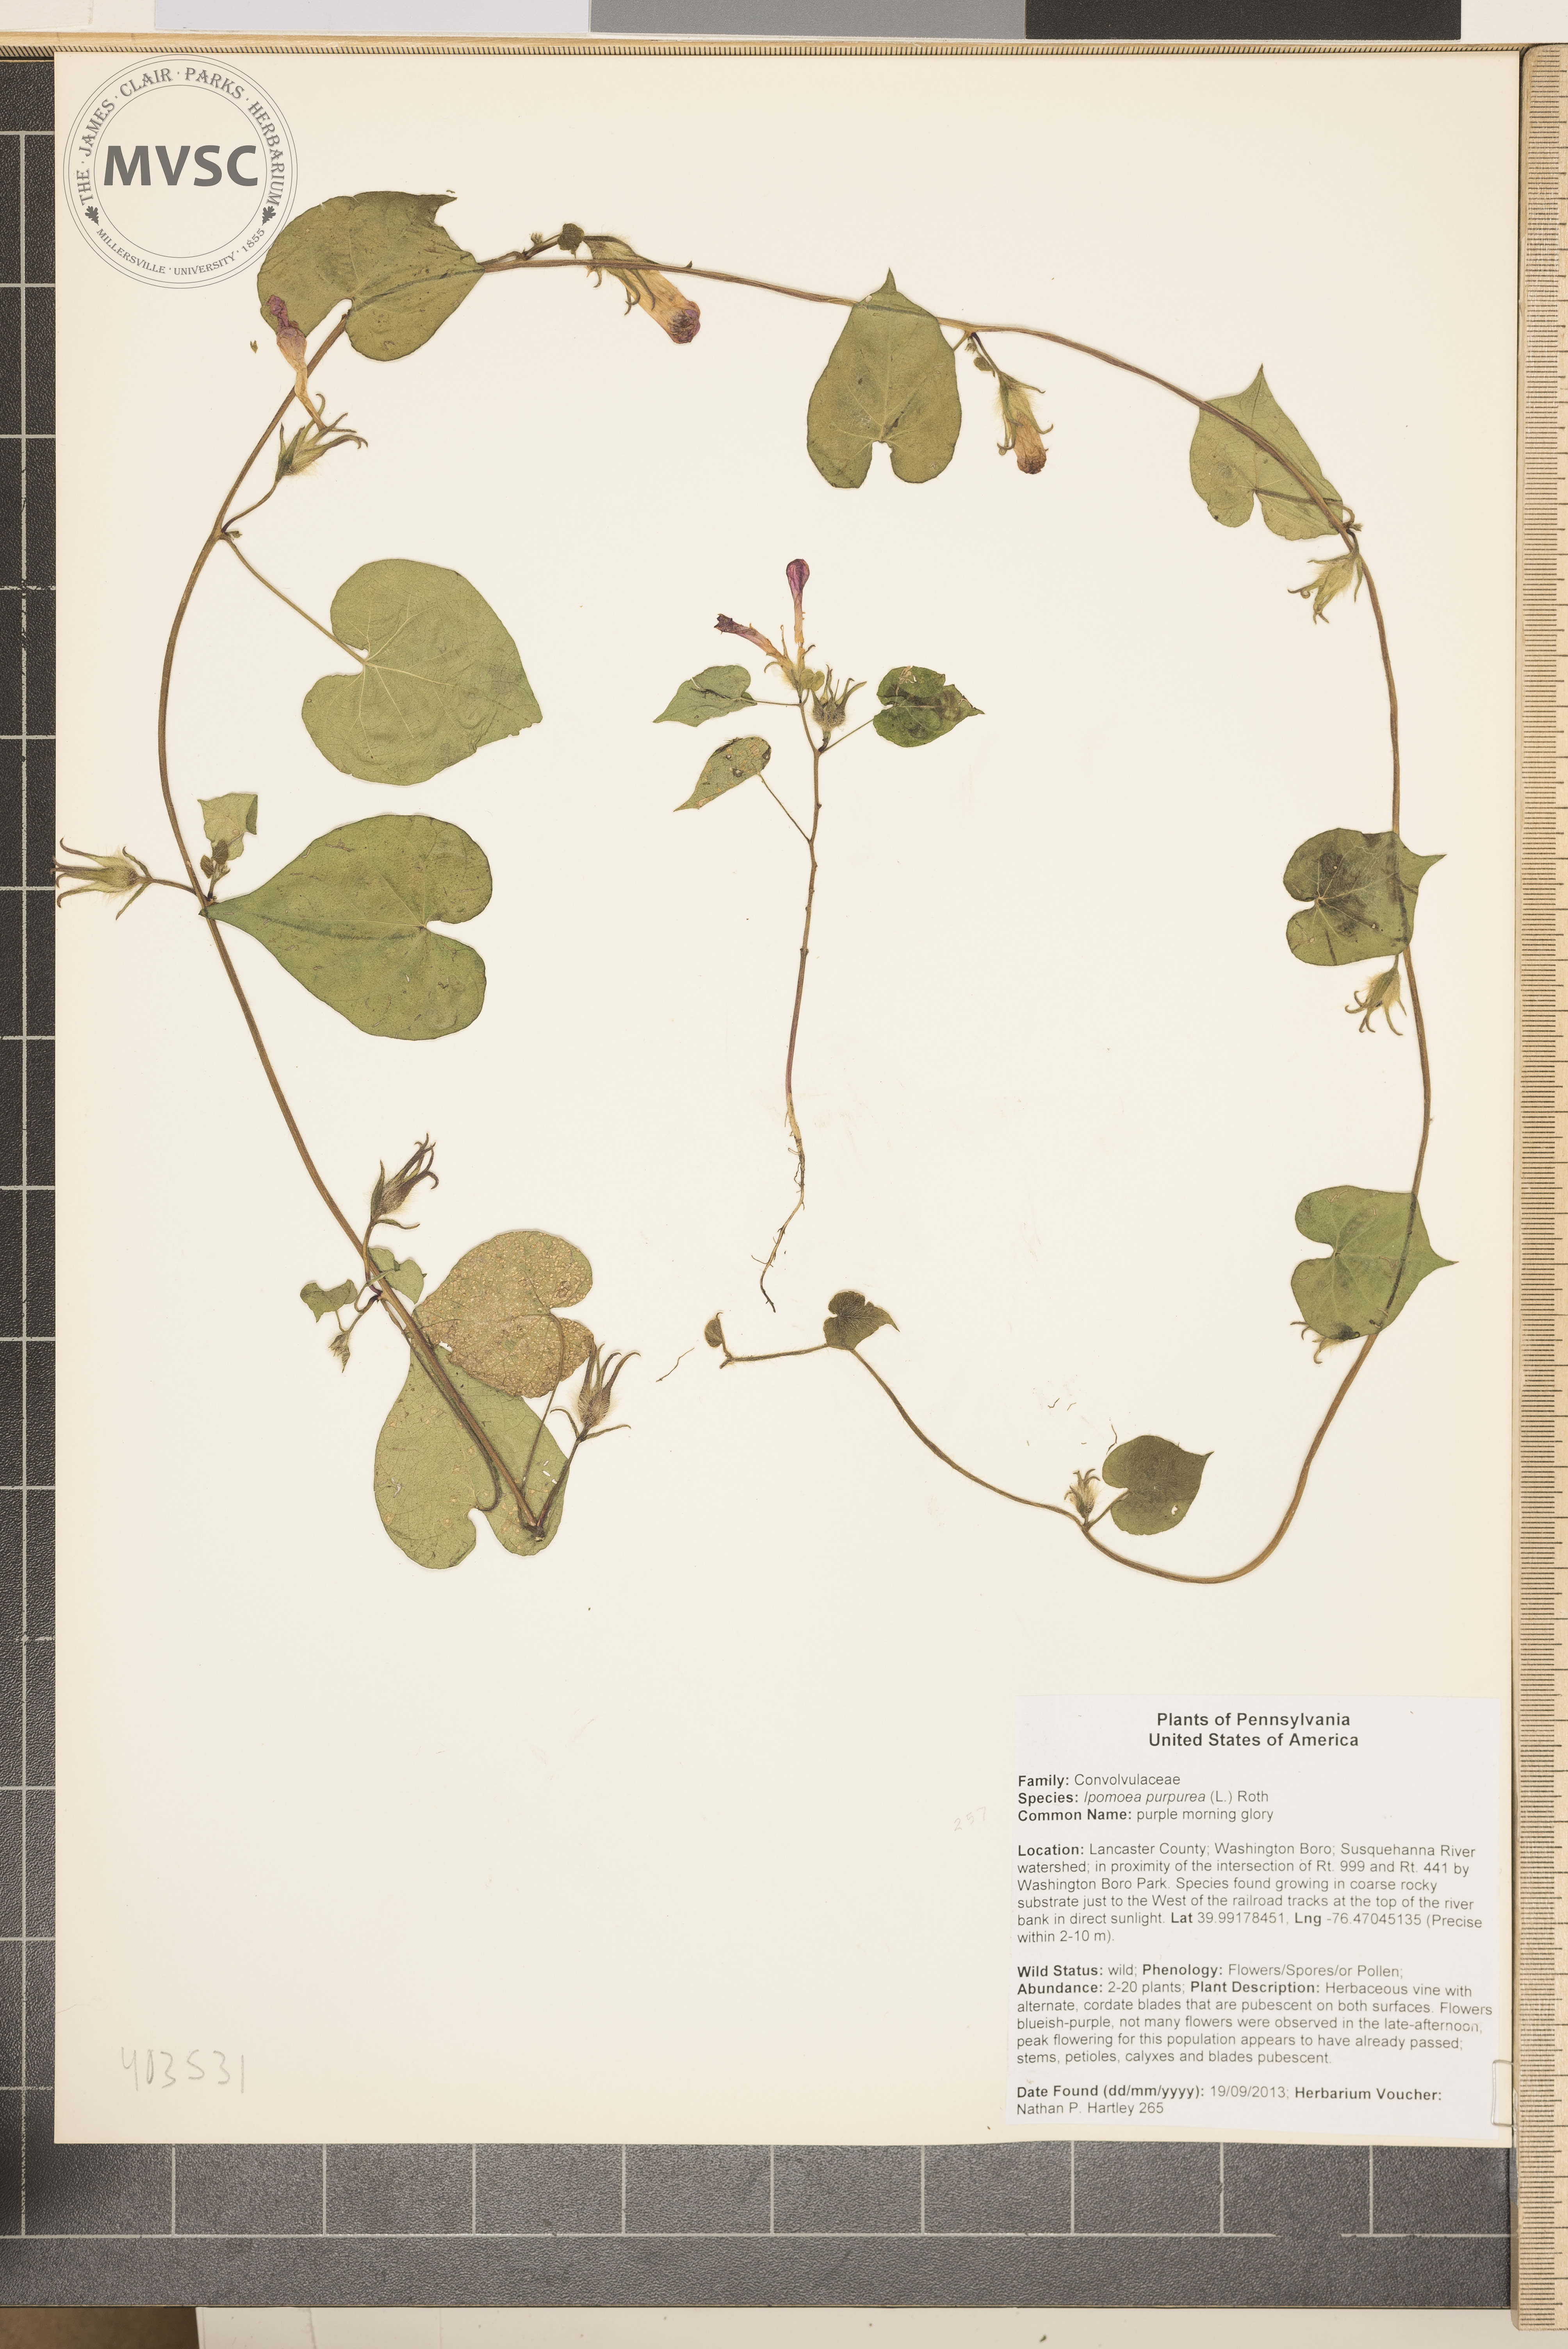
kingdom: Plantae
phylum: Tracheophyta
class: Magnoliopsida
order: Solanales
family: Convolvulaceae
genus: Ipomoea
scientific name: Ipomoea purpurea
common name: Common morning-glory
